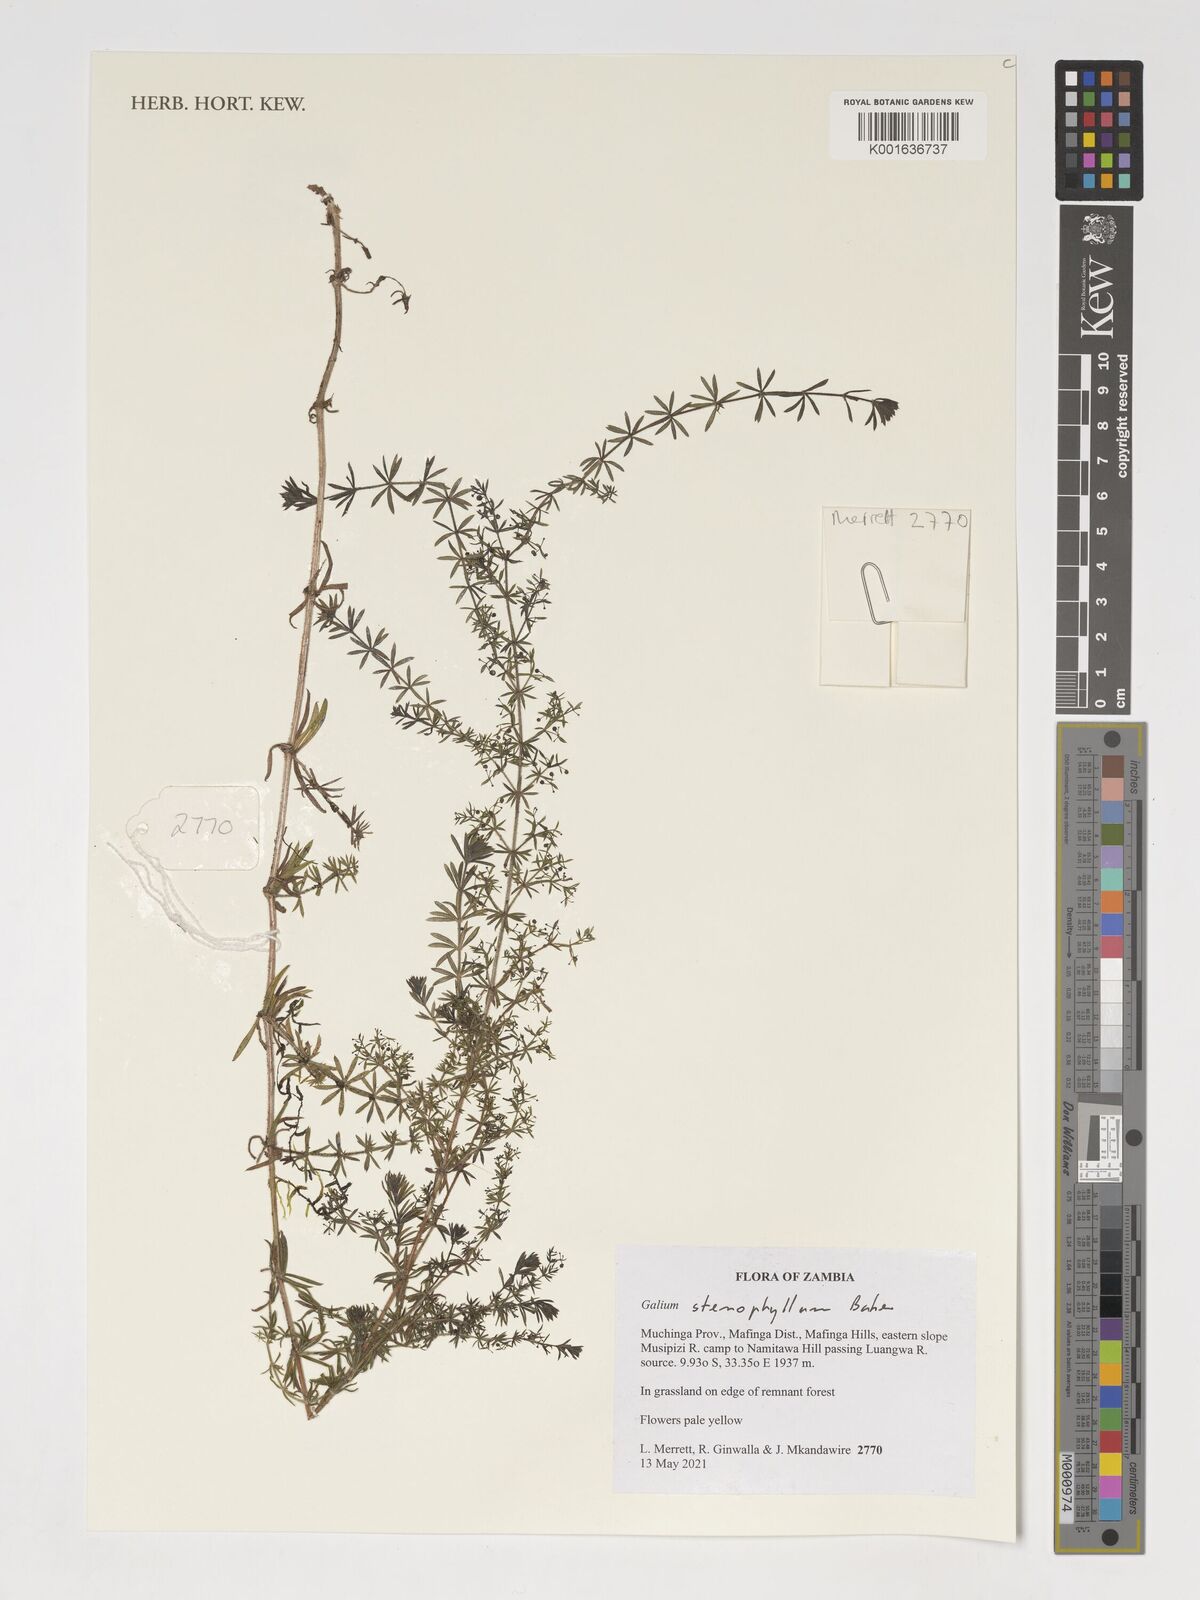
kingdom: Plantae
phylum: Tracheophyta
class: Magnoliopsida
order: Gentianales
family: Rubiaceae
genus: Galium
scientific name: Galium stenophyllum
